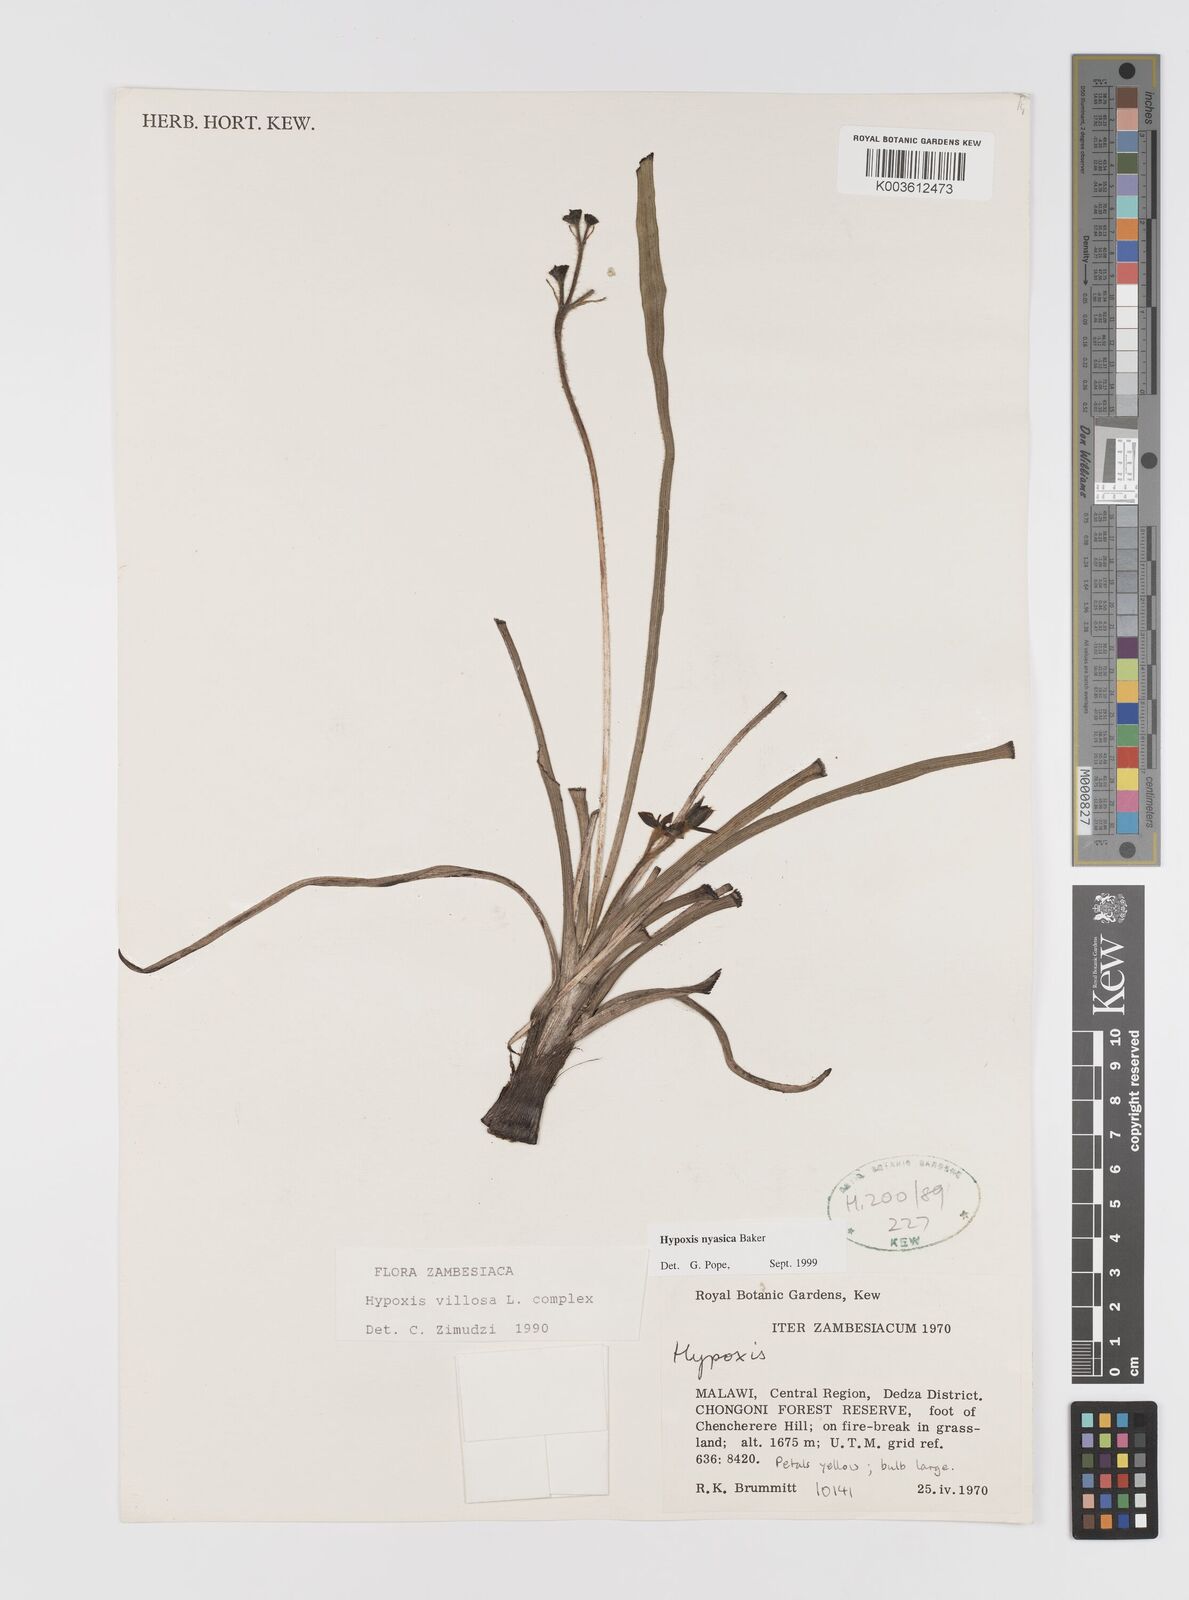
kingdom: Plantae
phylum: Tracheophyta
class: Liliopsida
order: Asparagales
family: Hypoxidaceae
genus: Hypoxis
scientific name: Hypoxis nyasica
